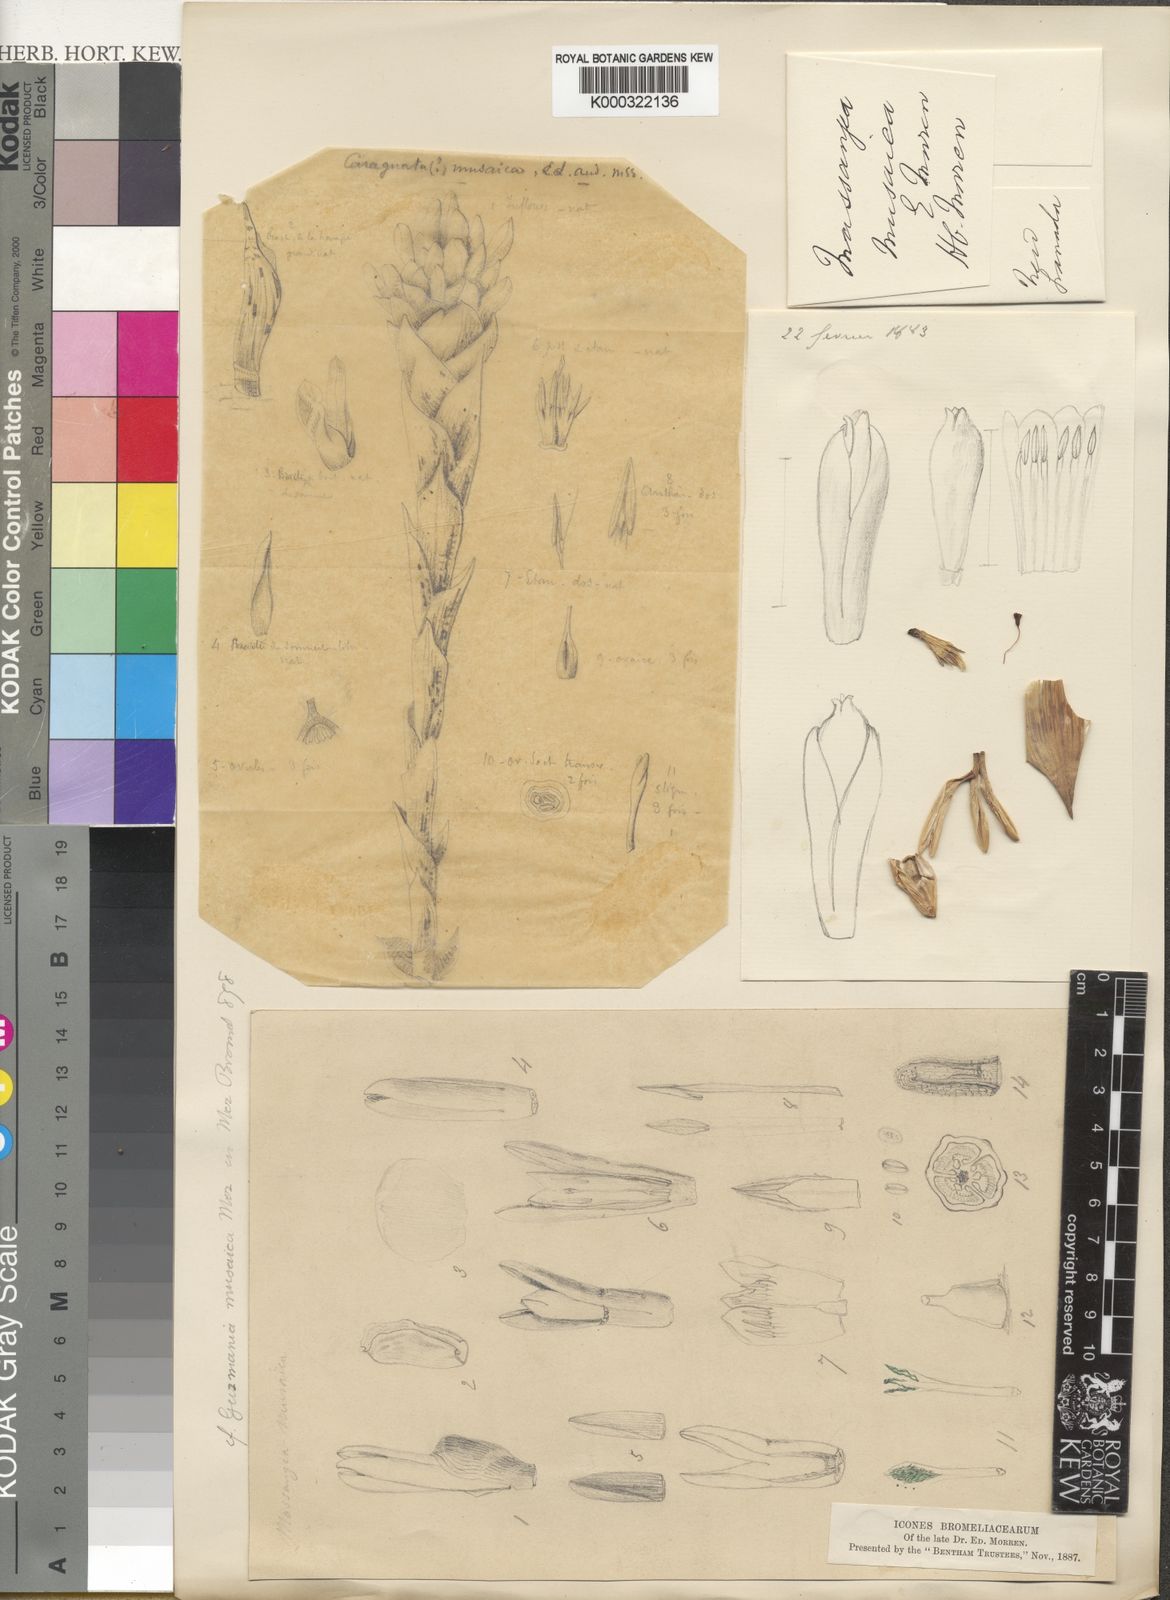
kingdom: Plantae
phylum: Tracheophyta
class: Liliopsida
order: Poales
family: Bromeliaceae
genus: Guzmania
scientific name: Guzmania musaica
